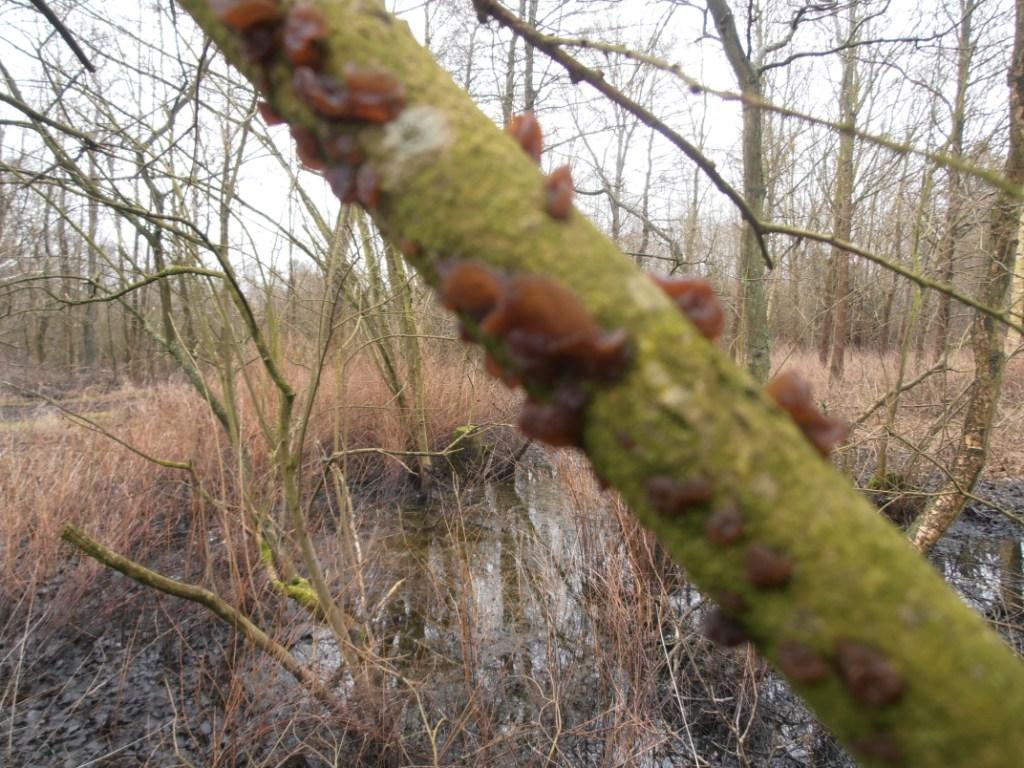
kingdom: Fungi
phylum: Basidiomycota
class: Agaricomycetes
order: Auriculariales
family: Auriculariaceae
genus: Exidia
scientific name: Exidia recisa
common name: pile-bævretop
